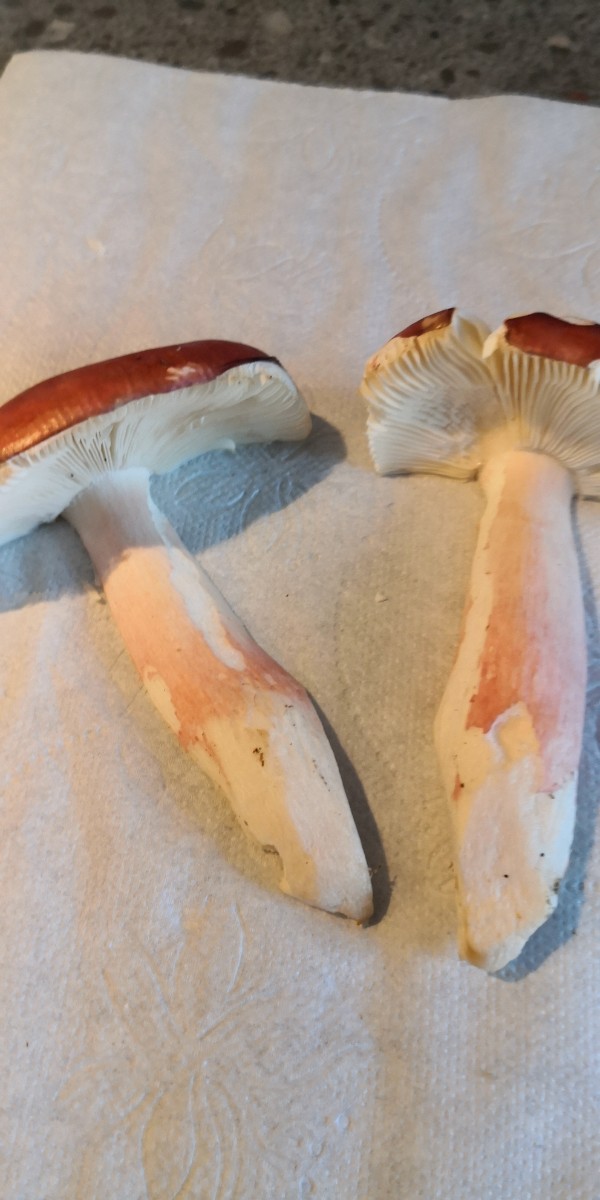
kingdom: Fungi
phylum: Basidiomycota
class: Agaricomycetes
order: Russulales
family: Russulaceae
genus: Russula
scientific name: Russula paludosa
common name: prægtig skørhat
